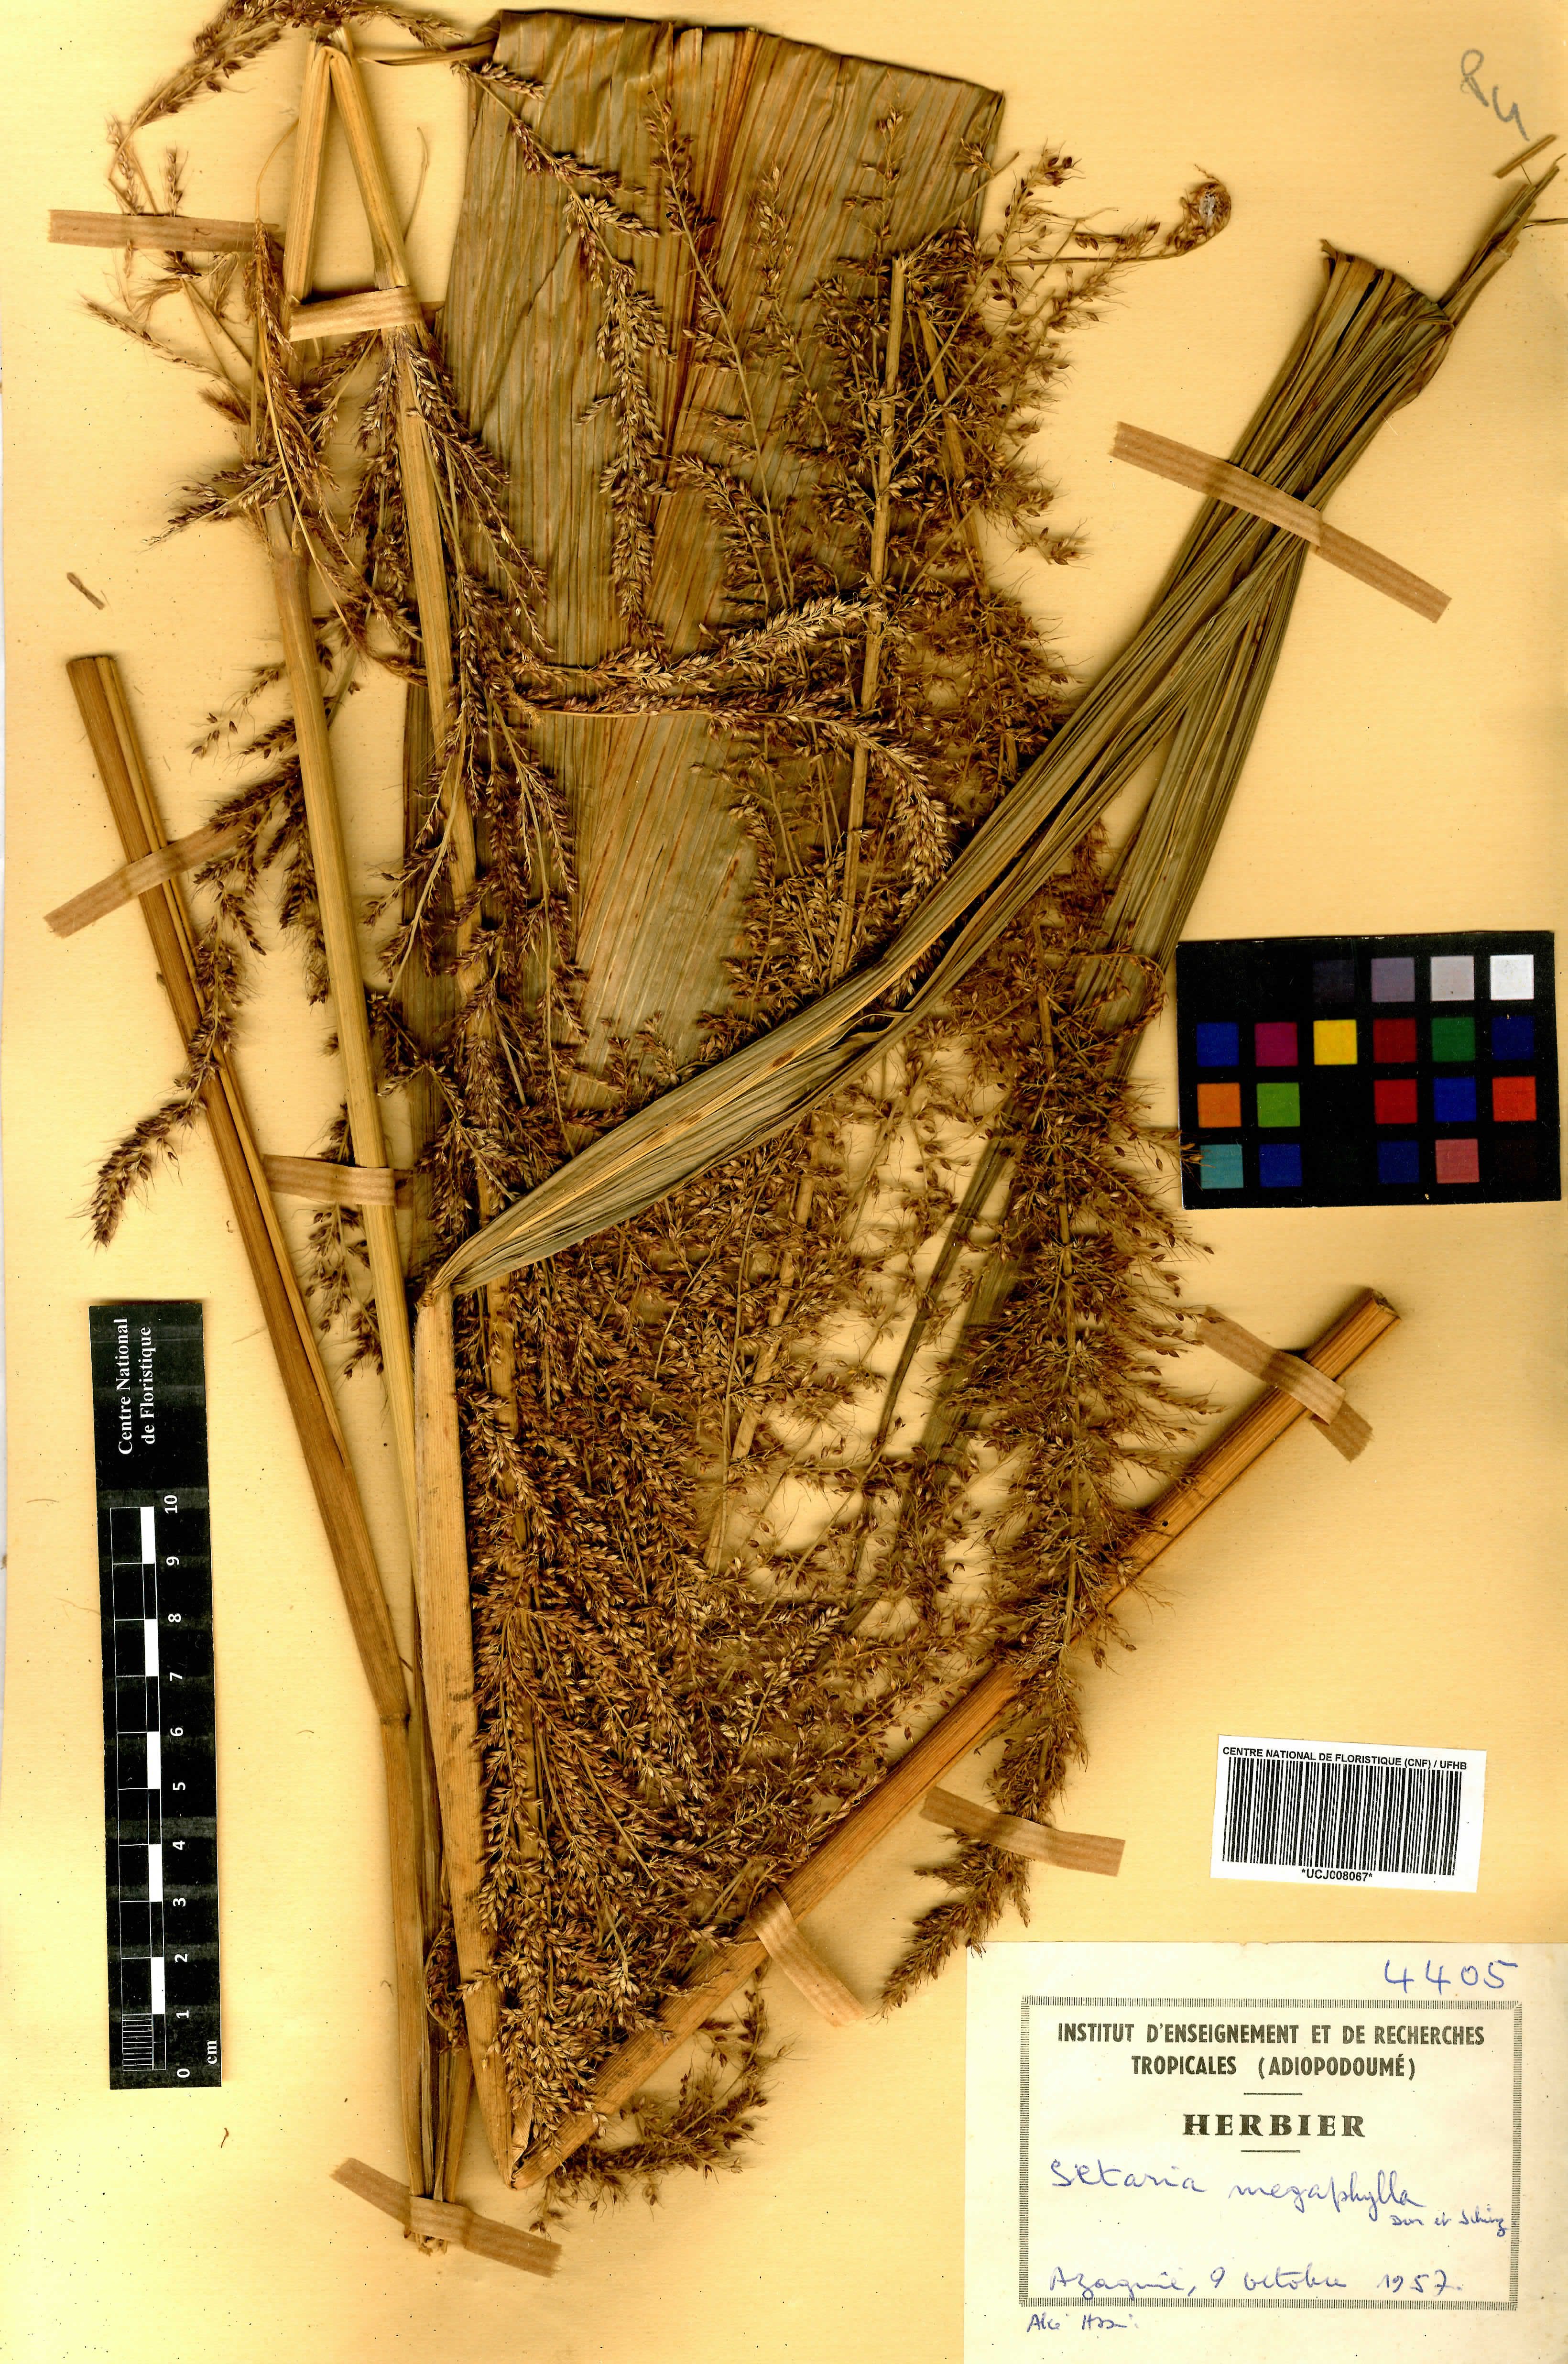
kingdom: Plantae
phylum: Tracheophyta
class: Liliopsida
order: Poales
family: Poaceae
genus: Setaria
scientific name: Setaria megaphylla
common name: Bigleaf bristlegrass
